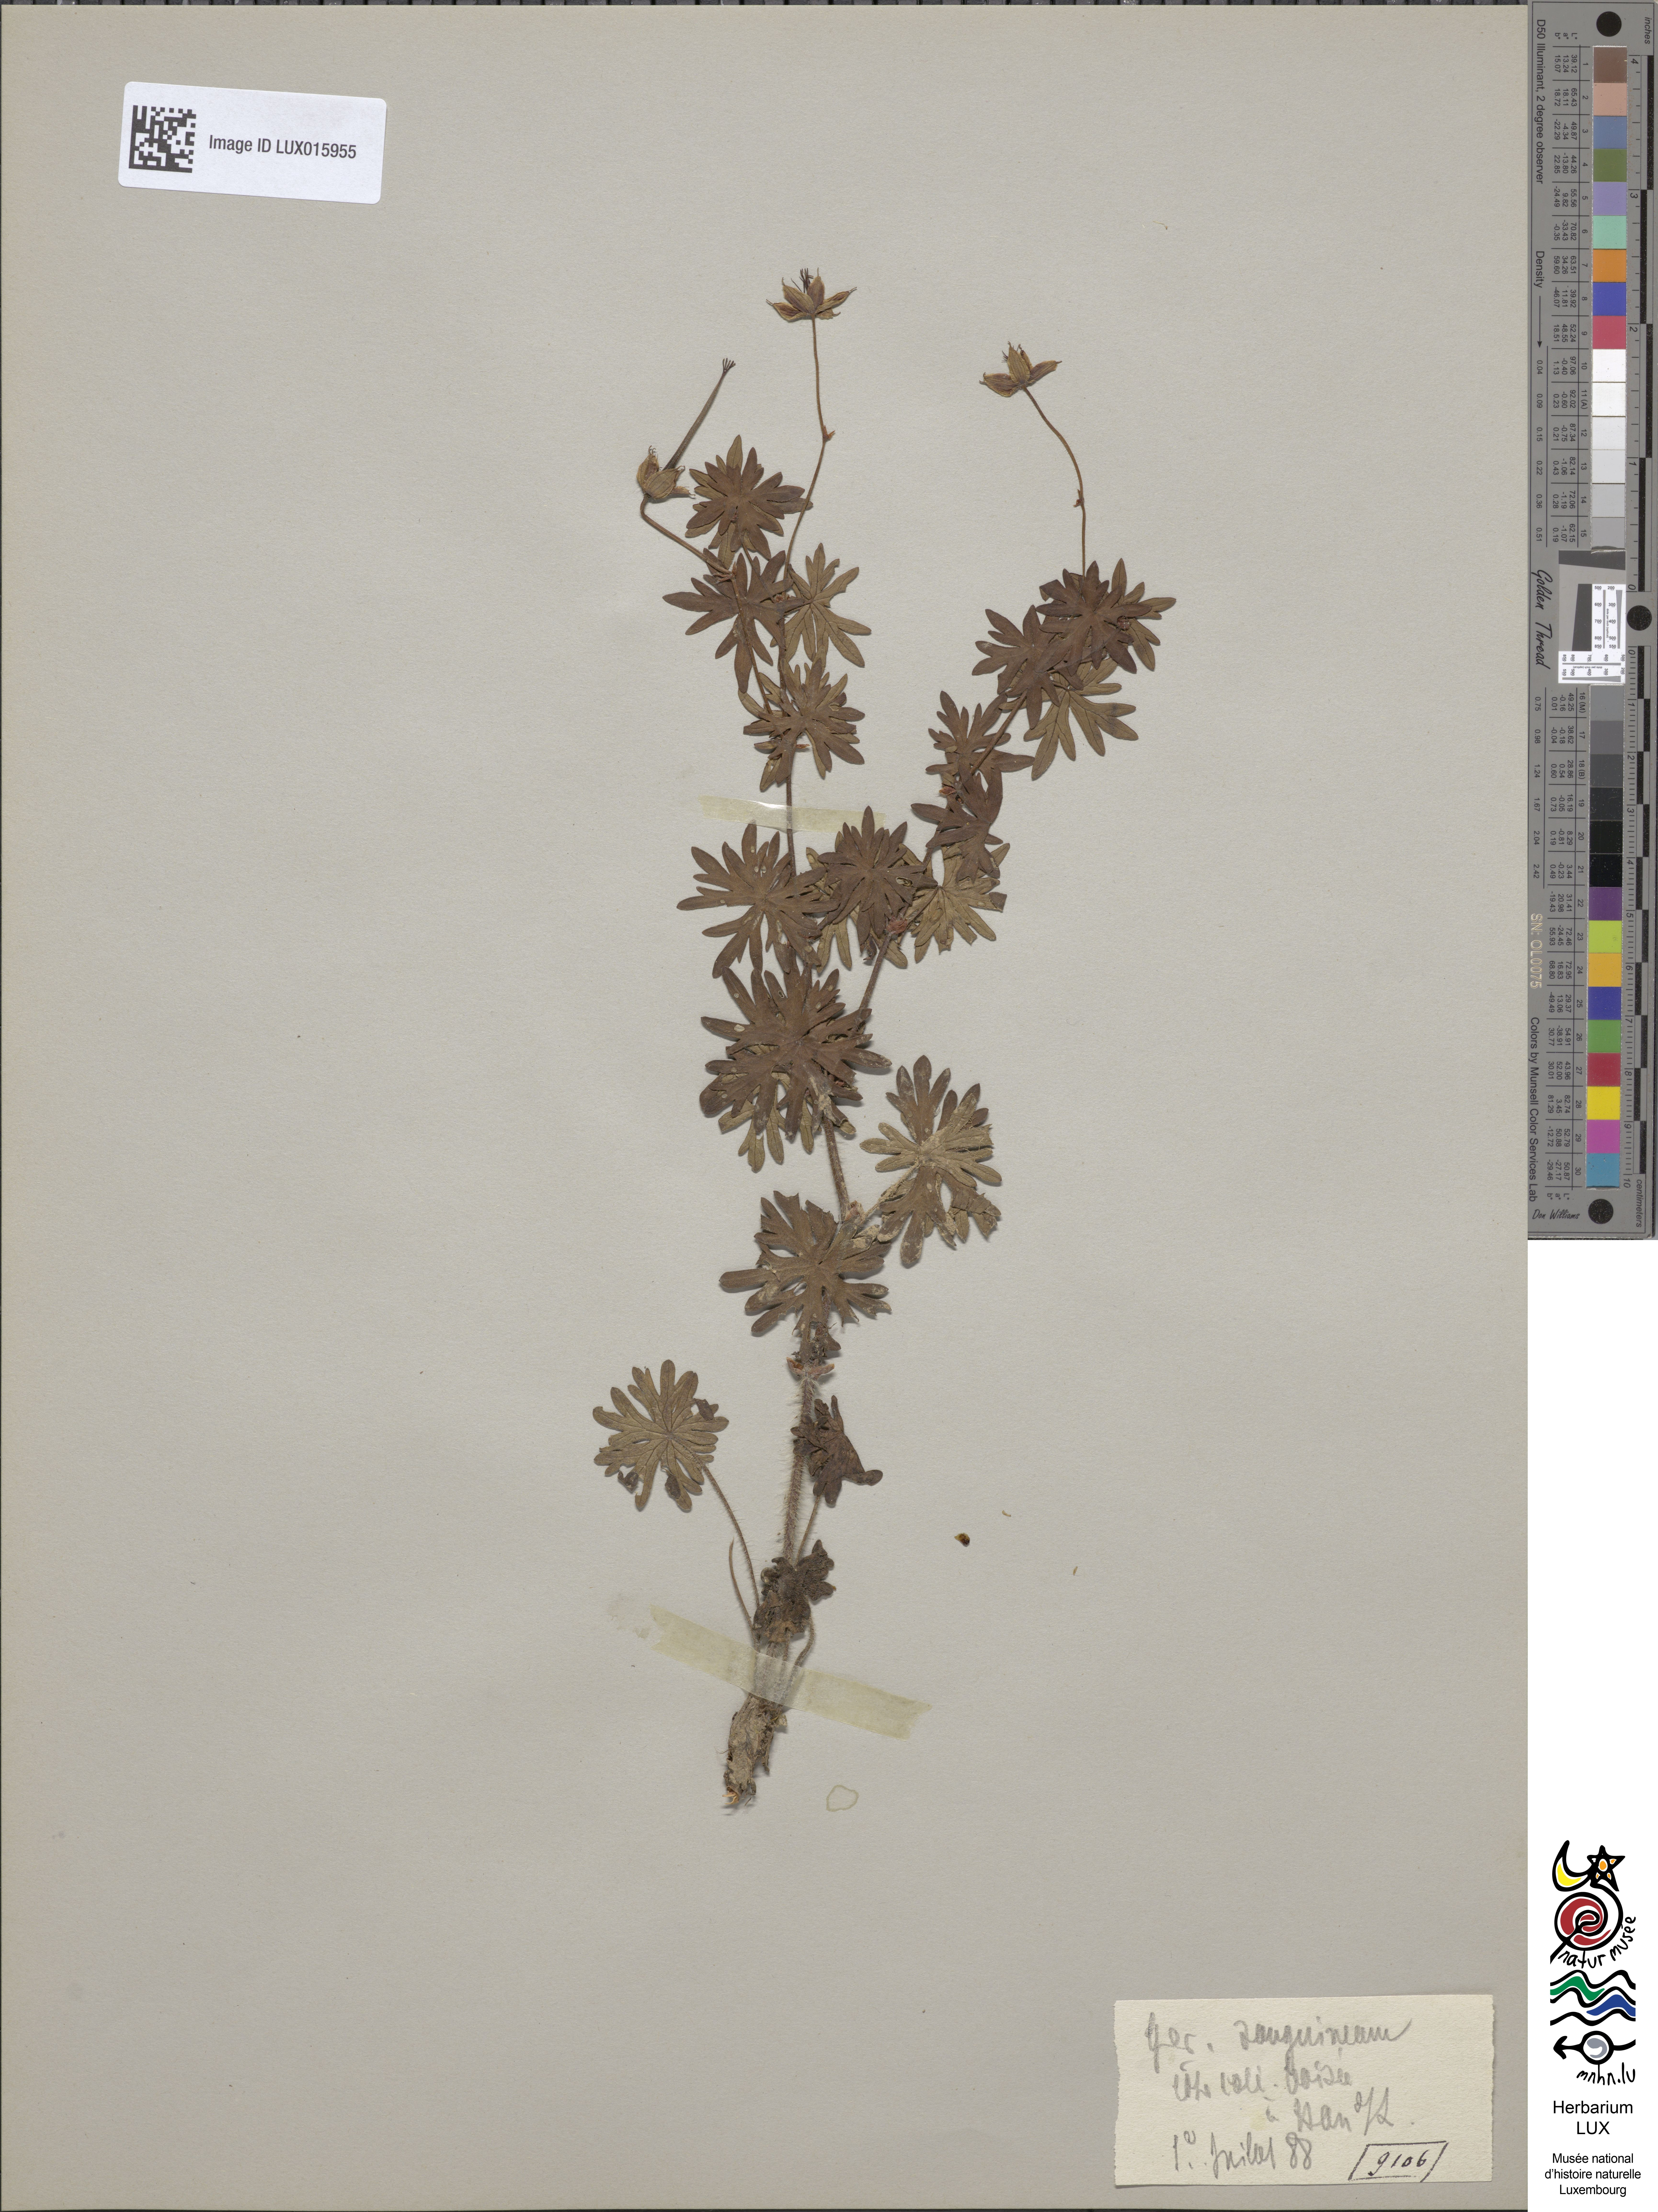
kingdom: Plantae
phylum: Tracheophyta
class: Magnoliopsida
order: Geraniales
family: Geraniaceae
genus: Geranium
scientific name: Geranium sanguineum
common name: Bloody crane's-bill
